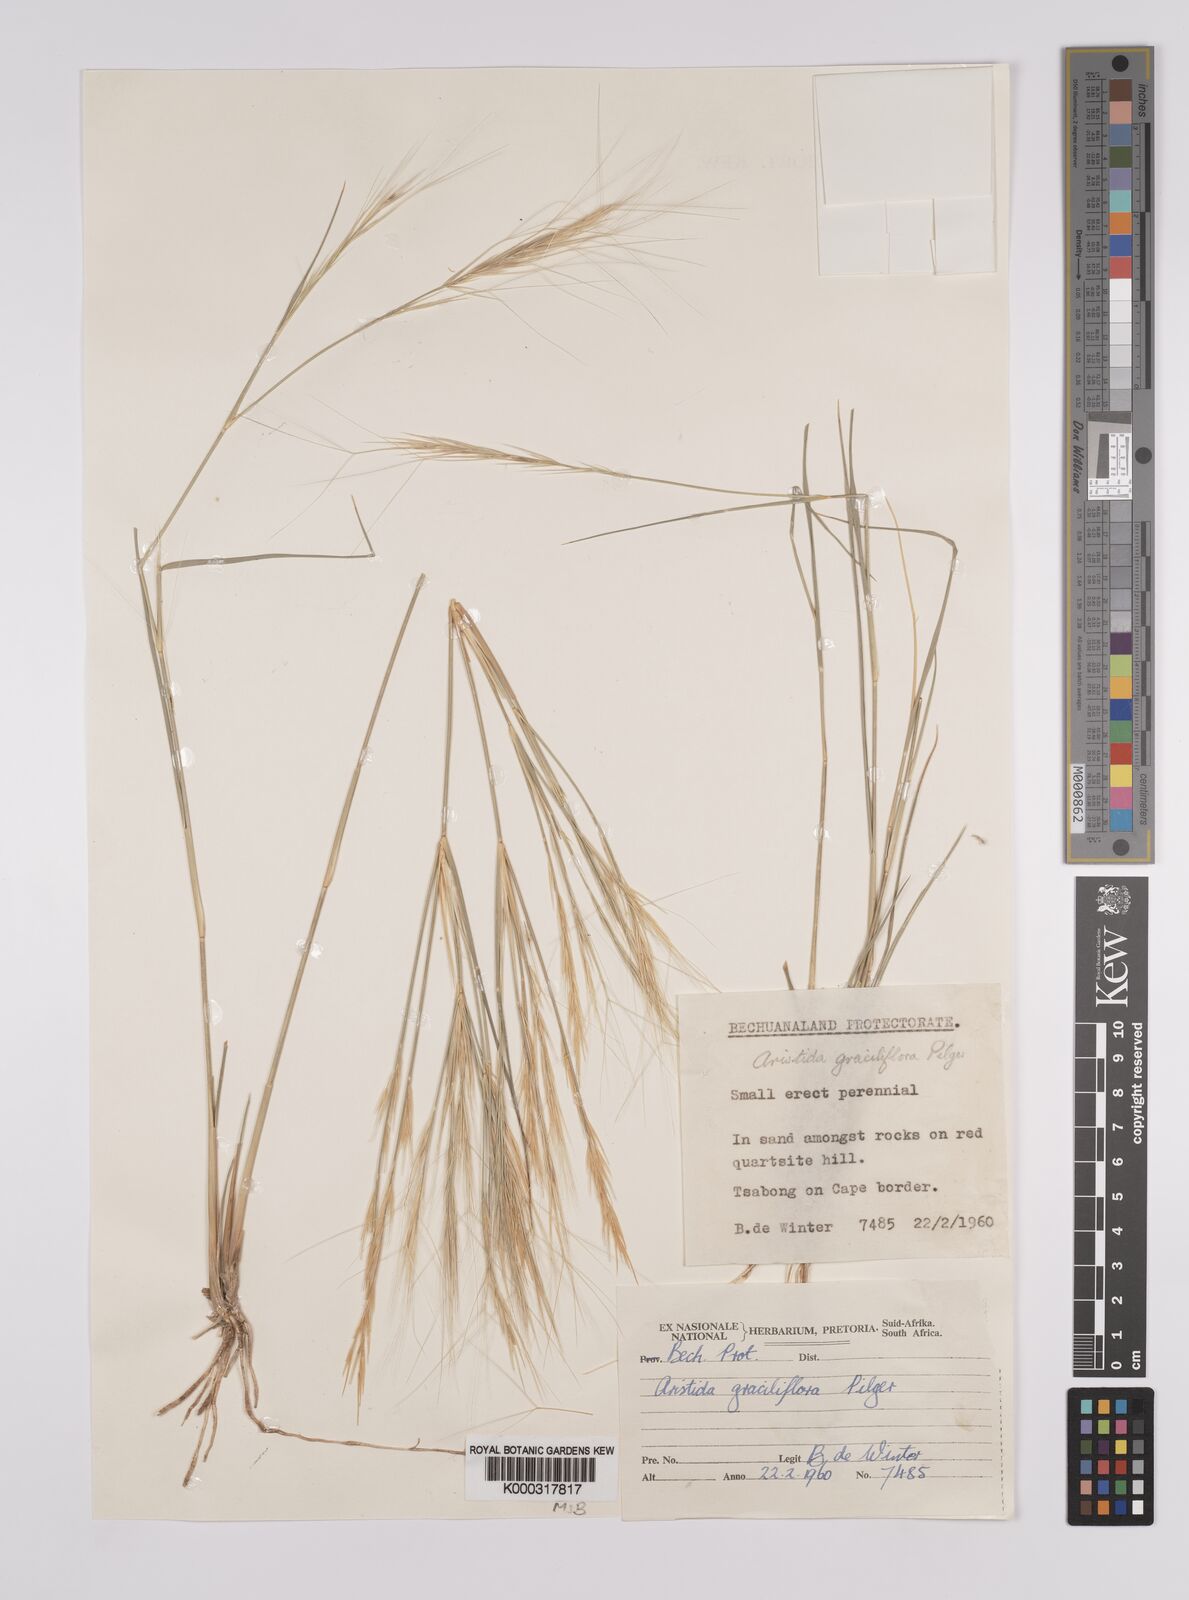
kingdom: Plantae
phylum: Tracheophyta
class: Liliopsida
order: Poales
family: Poaceae
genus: Aristida
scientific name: Aristida stipitata
